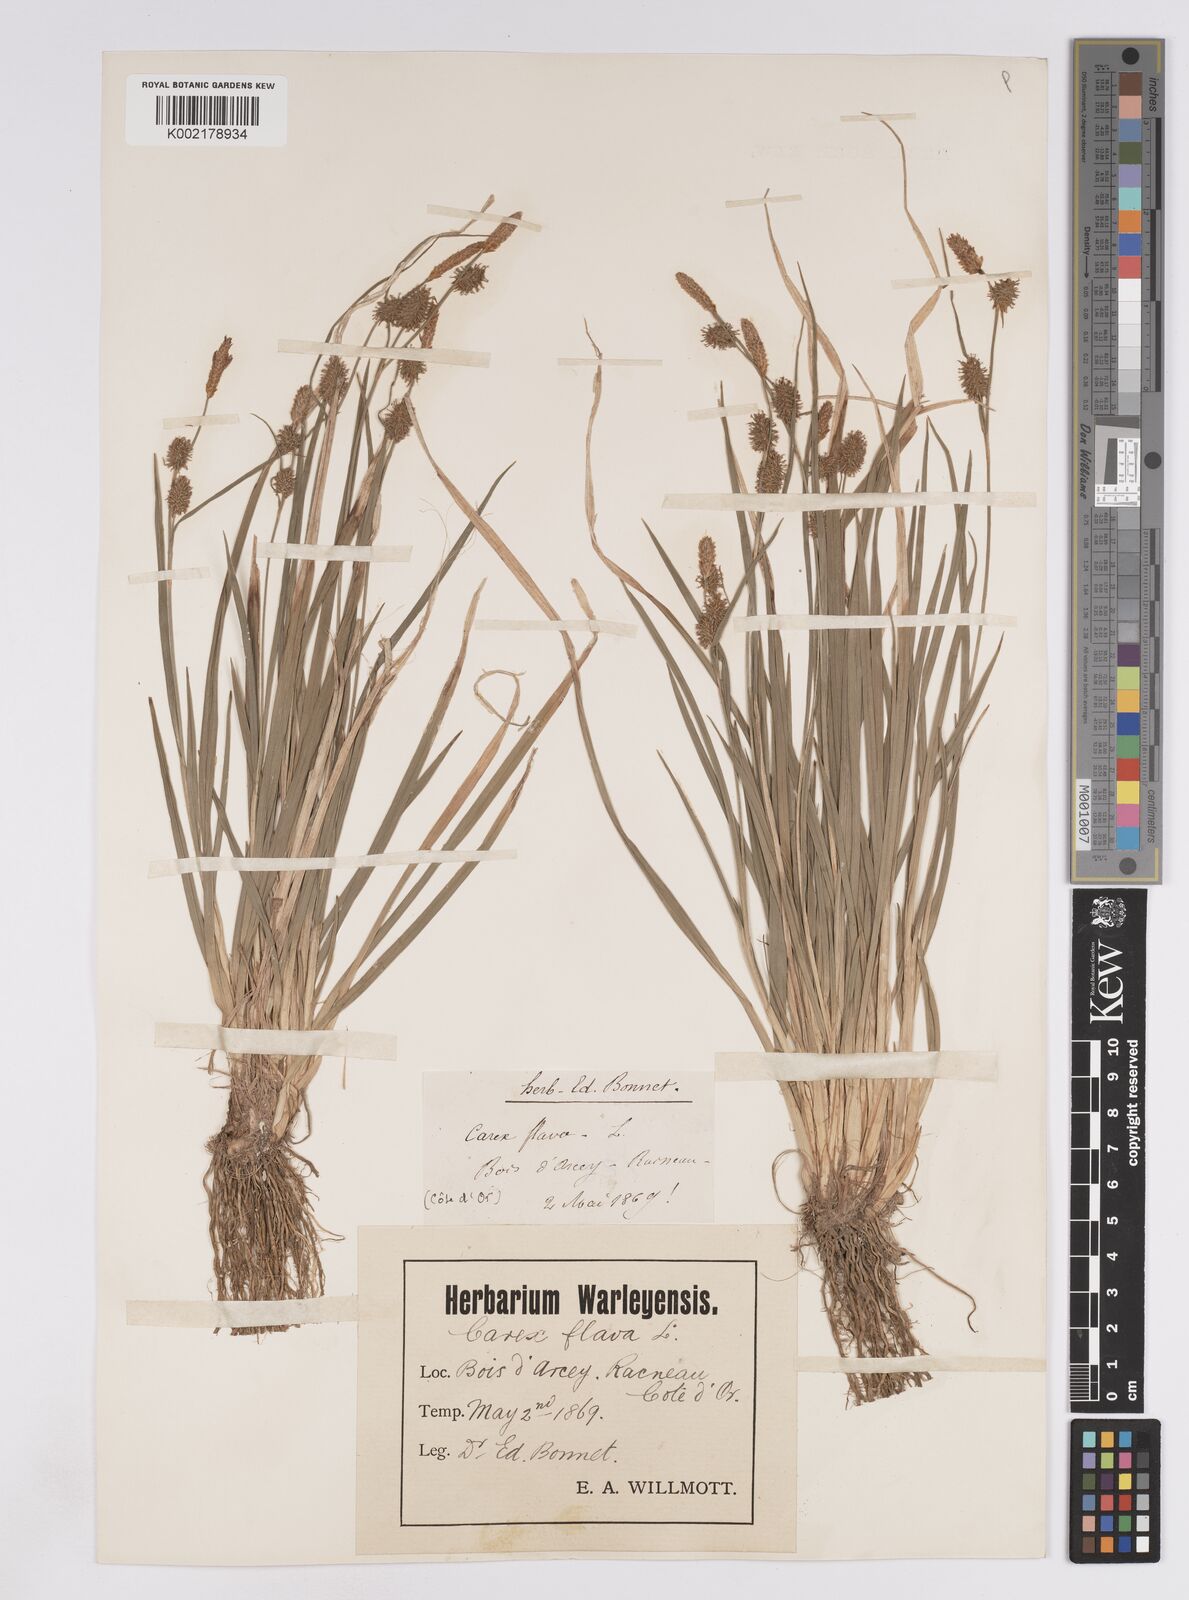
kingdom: Plantae
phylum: Tracheophyta
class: Liliopsida
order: Poales
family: Cyperaceae
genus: Carex
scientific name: Carex lepidocarpa
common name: Long-stalked yellow-sedge
